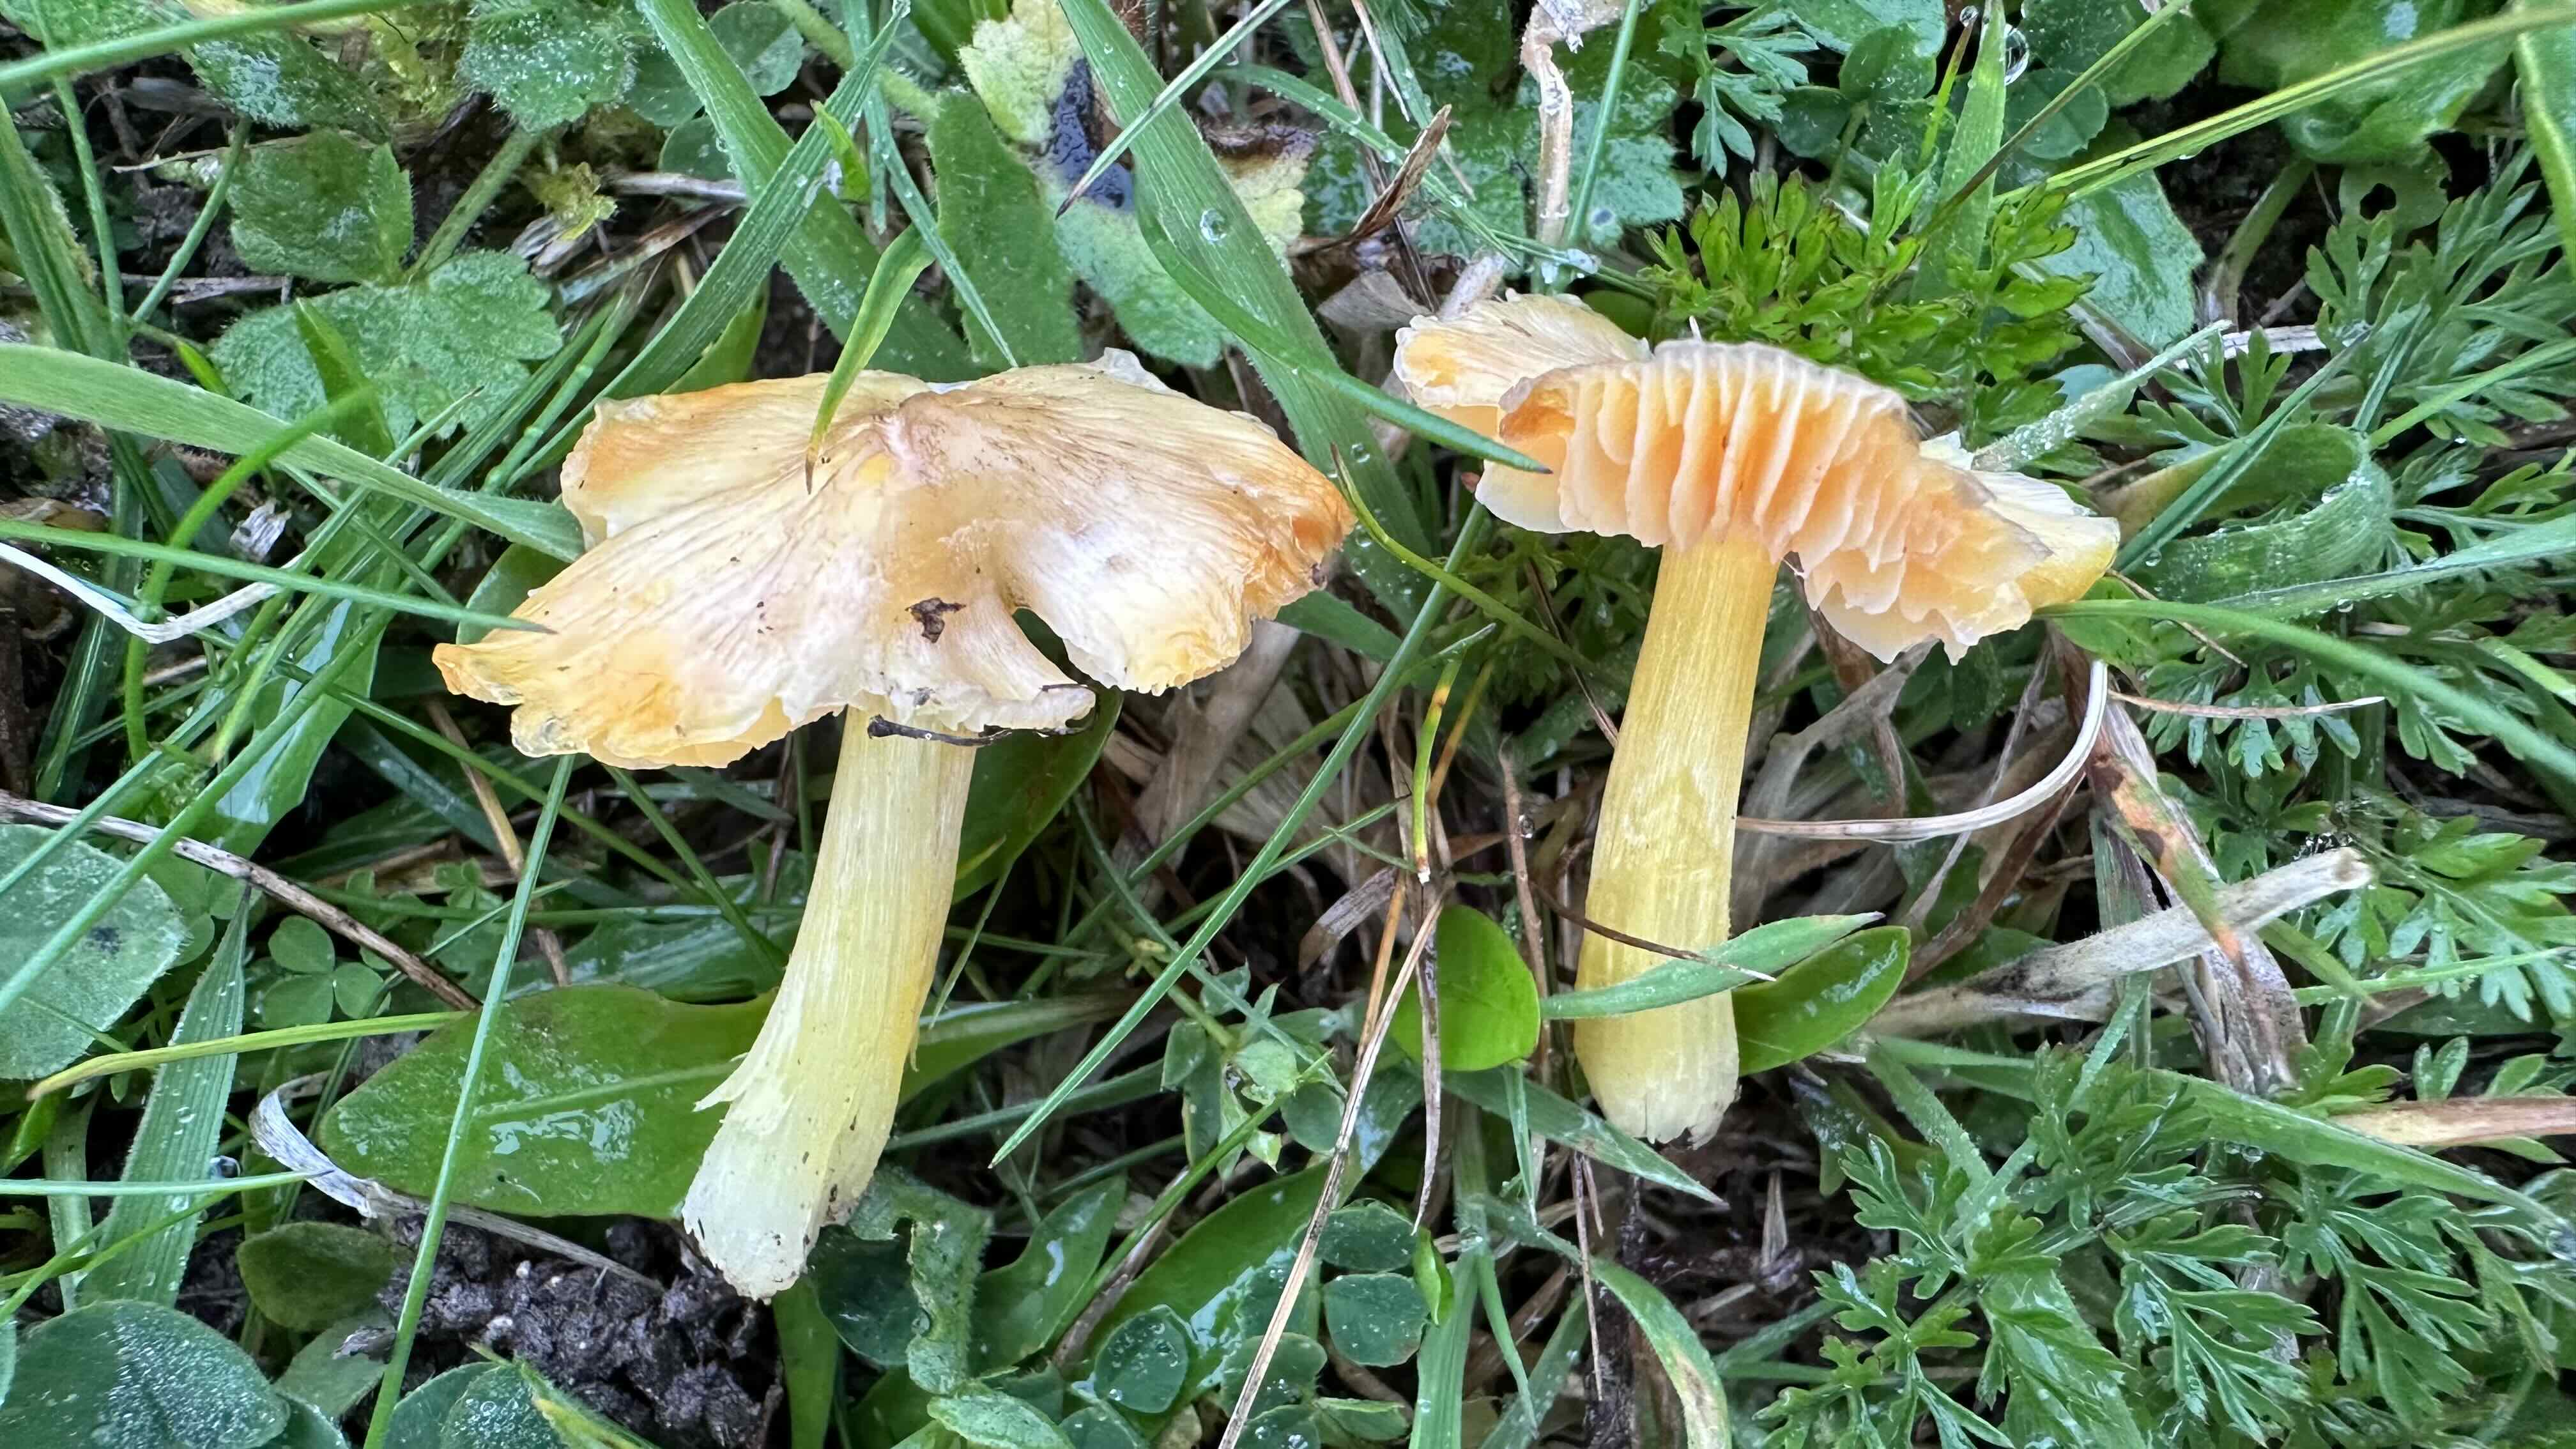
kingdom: Fungi
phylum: Basidiomycota
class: Agaricomycetes
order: Agaricales
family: Hygrophoraceae
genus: Hygrocybe
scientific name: Hygrocybe acutoconica
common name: Konrads vokshat
